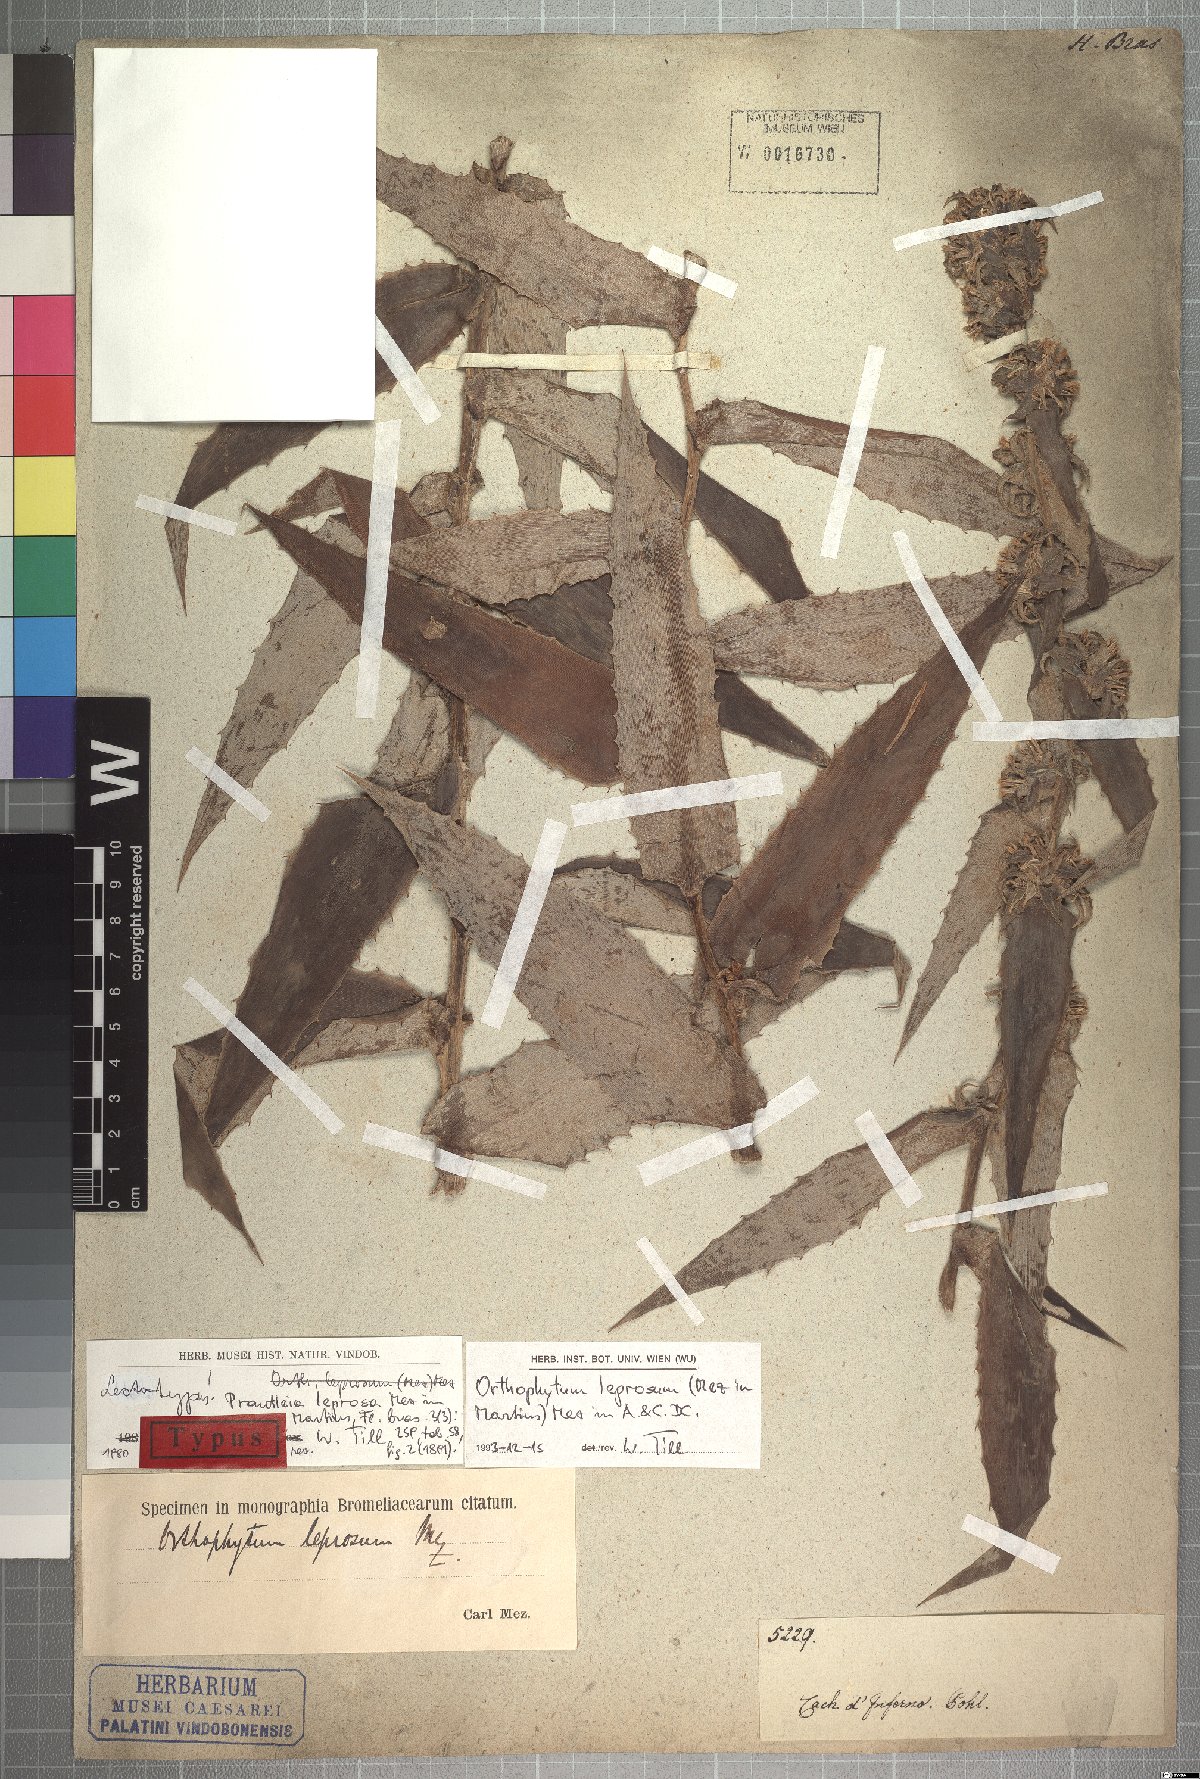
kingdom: Plantae
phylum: Tracheophyta
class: Liliopsida
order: Poales
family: Bromeliaceae
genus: Orthophytum
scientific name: Orthophytum leprosum
